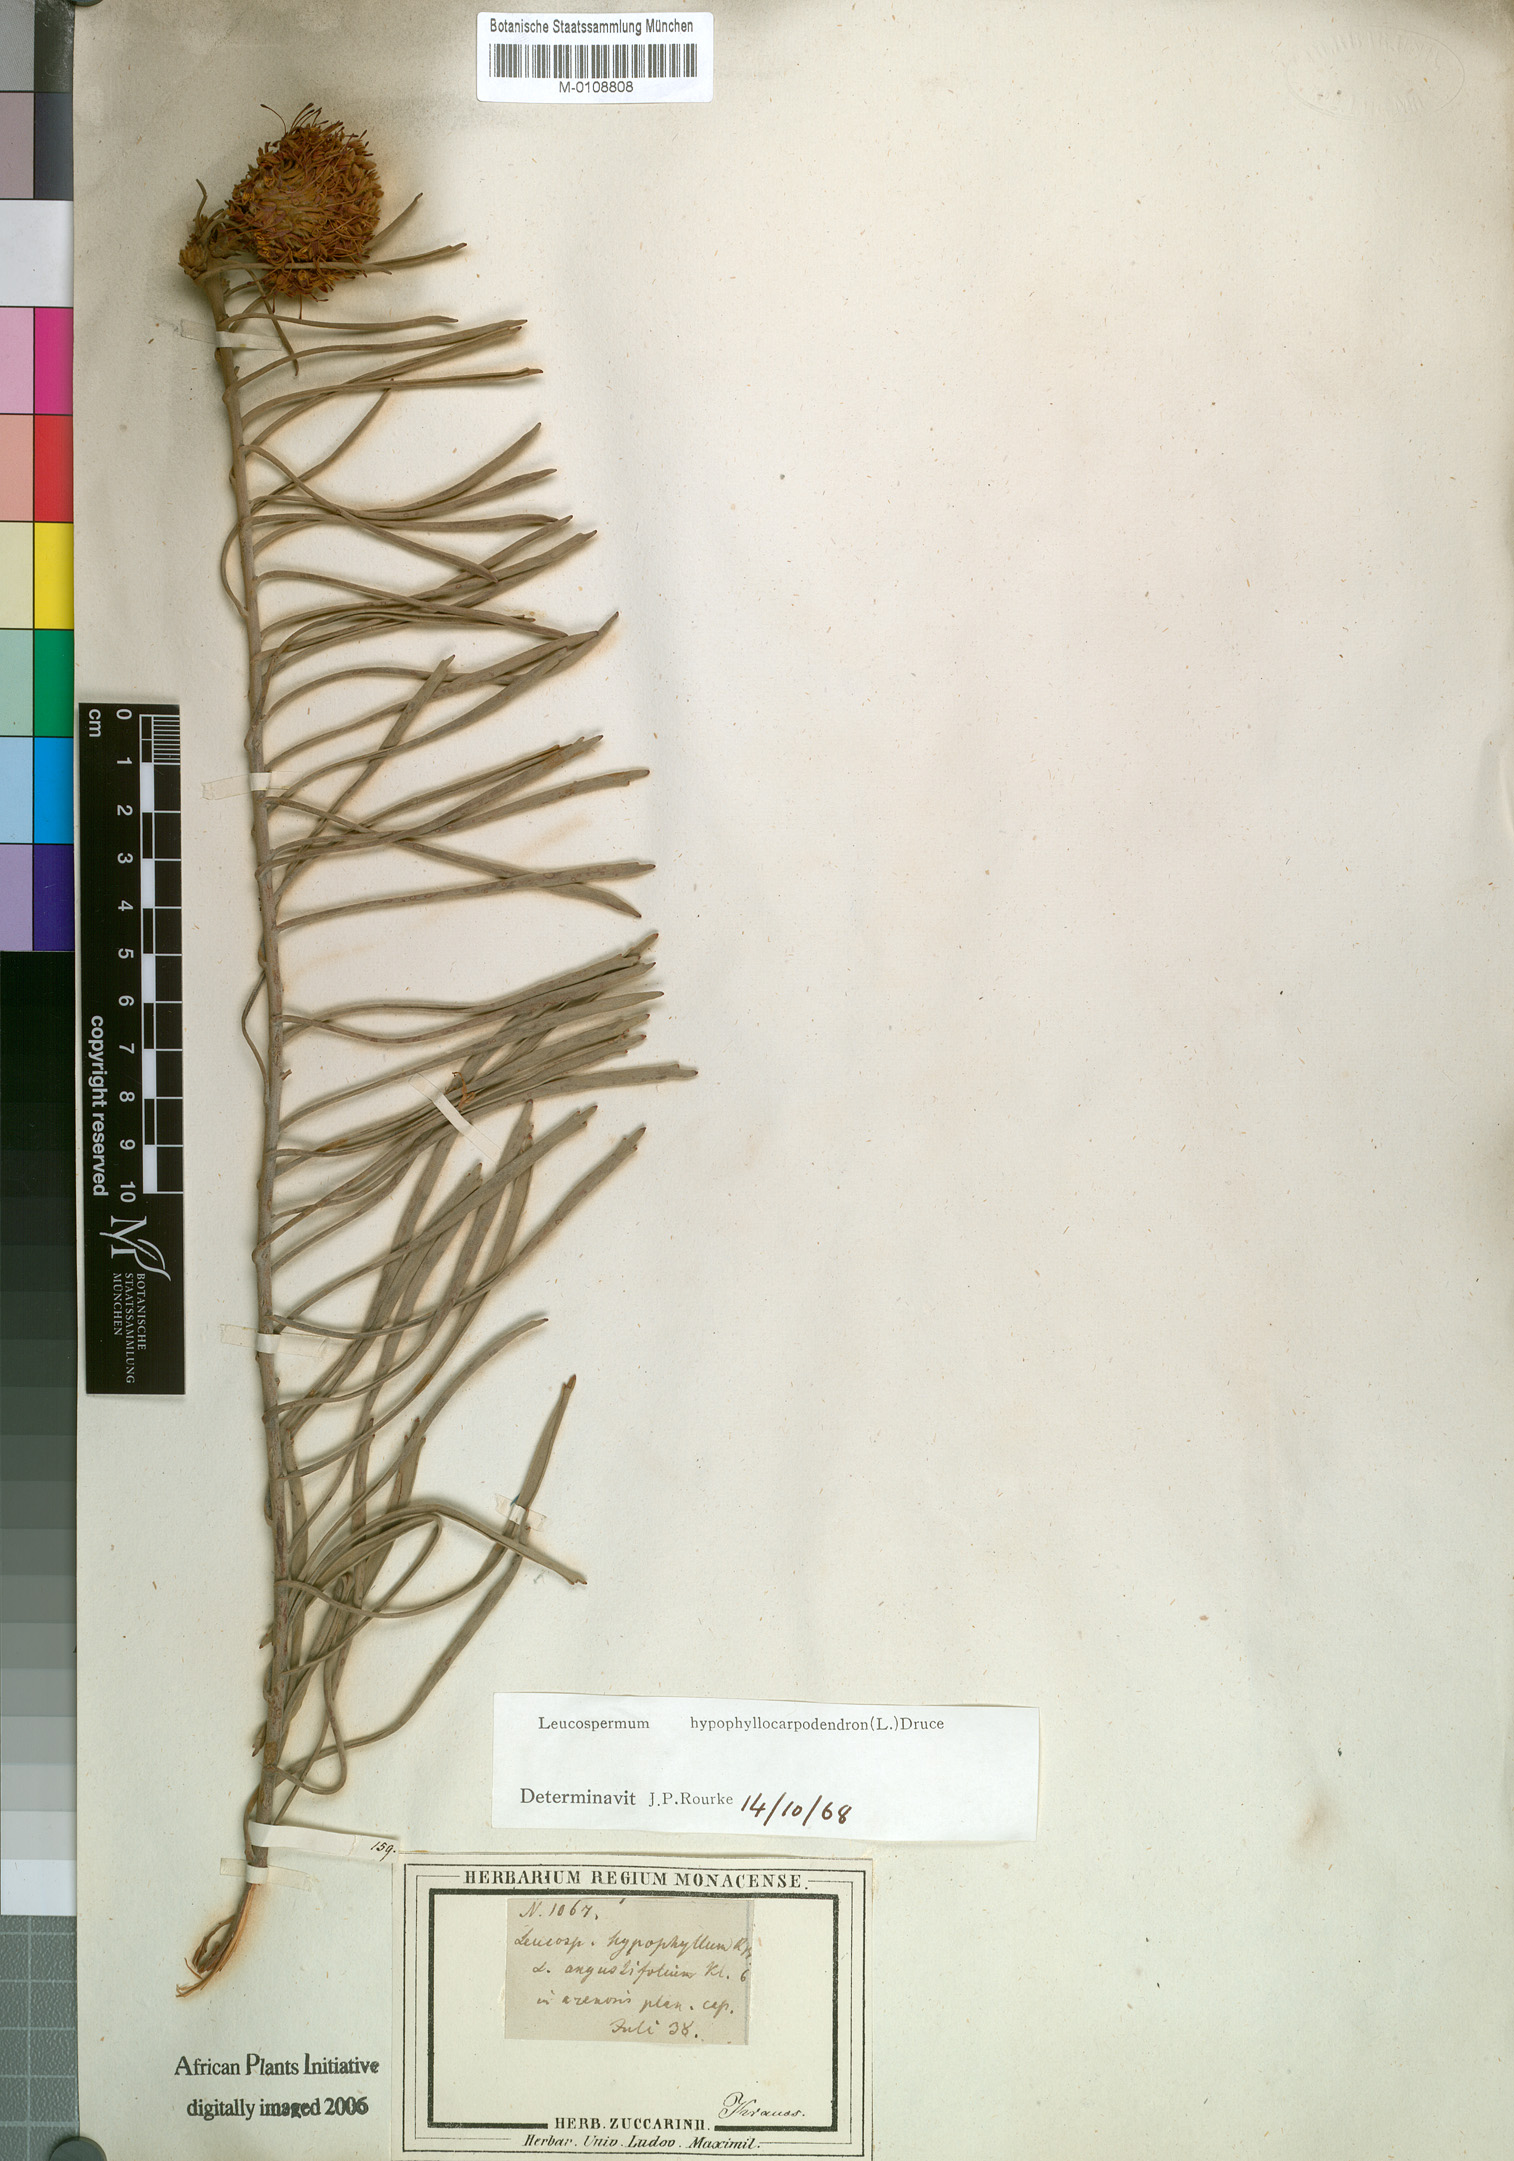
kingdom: Plantae
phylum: Tracheophyta
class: Magnoliopsida
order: Proteales
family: Proteaceae
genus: Leucospermum
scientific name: Leucospermum hypophyllocarpodendron
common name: Snakestem pincushion
